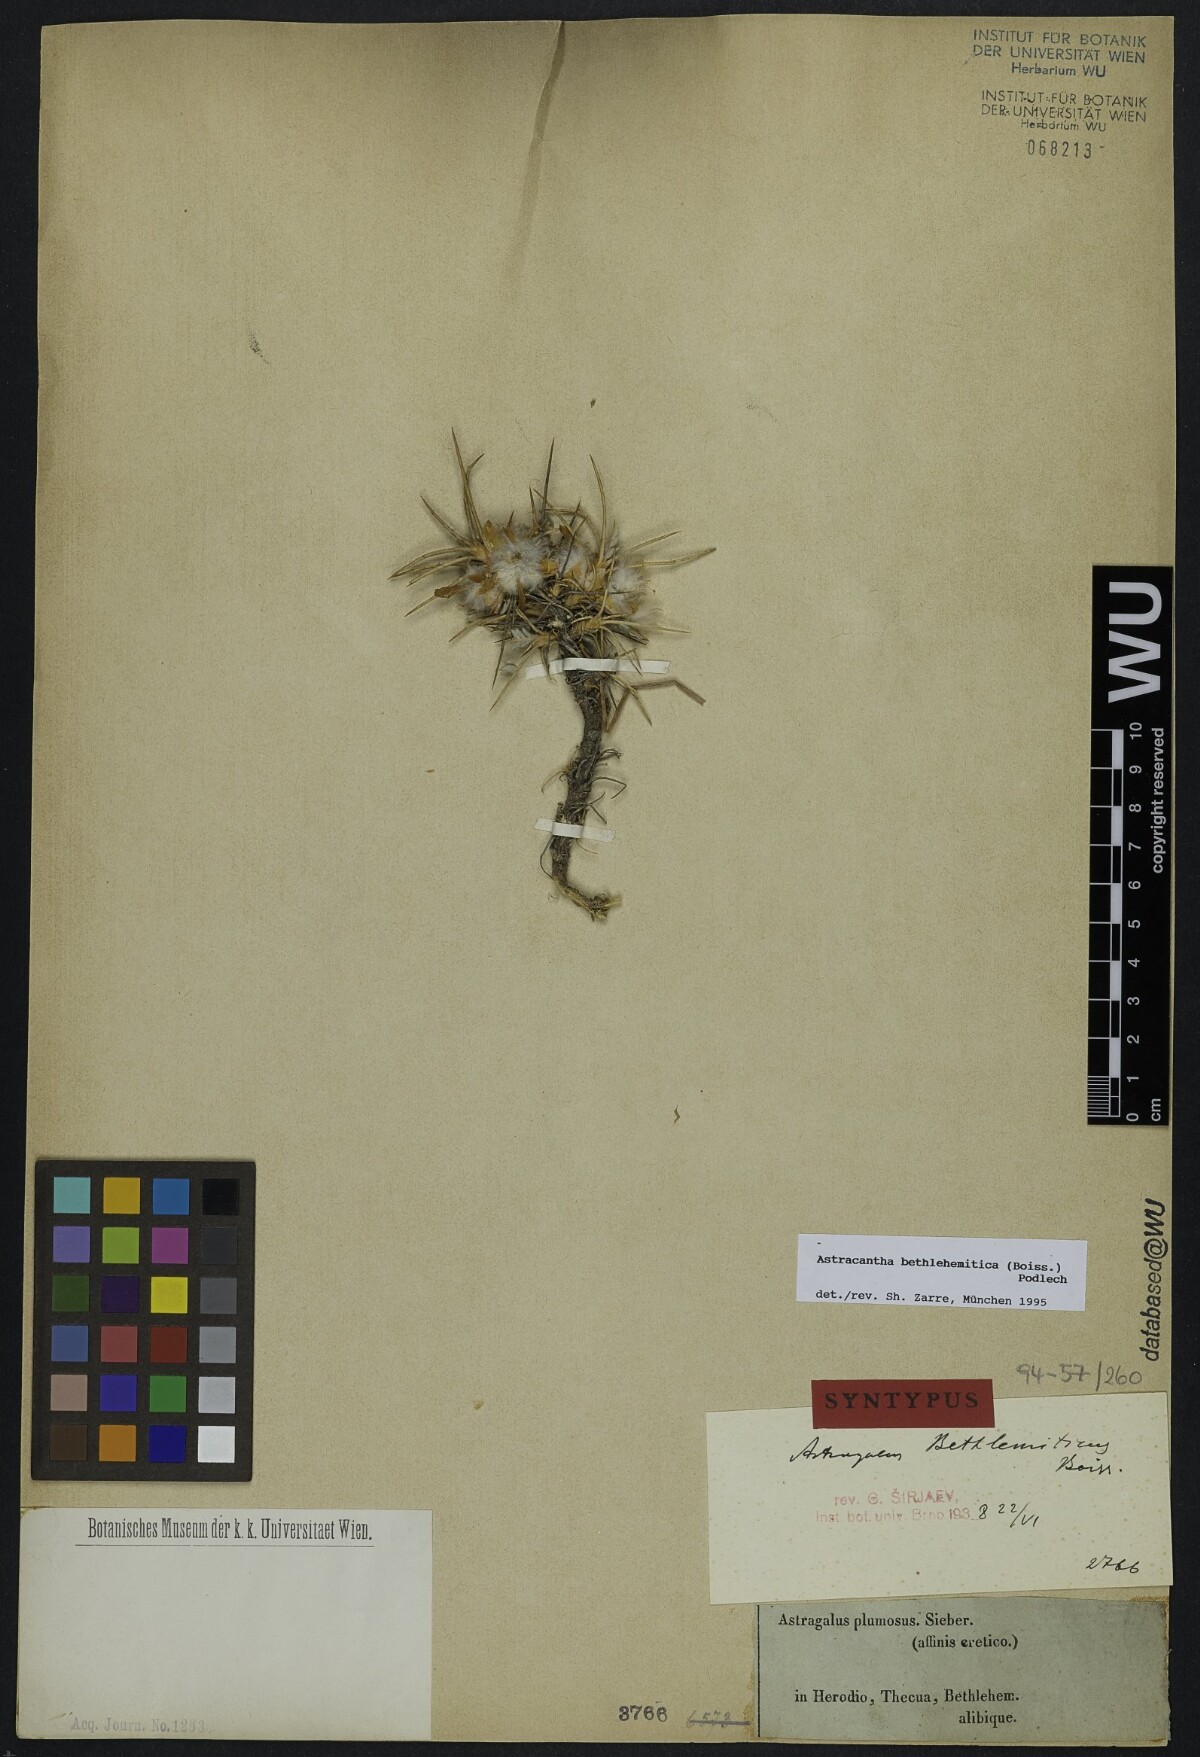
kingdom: Plantae
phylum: Tracheophyta
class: Magnoliopsida
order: Fabales
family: Fabaceae
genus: Astragalus
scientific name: Astragalus bethlehemiticus
